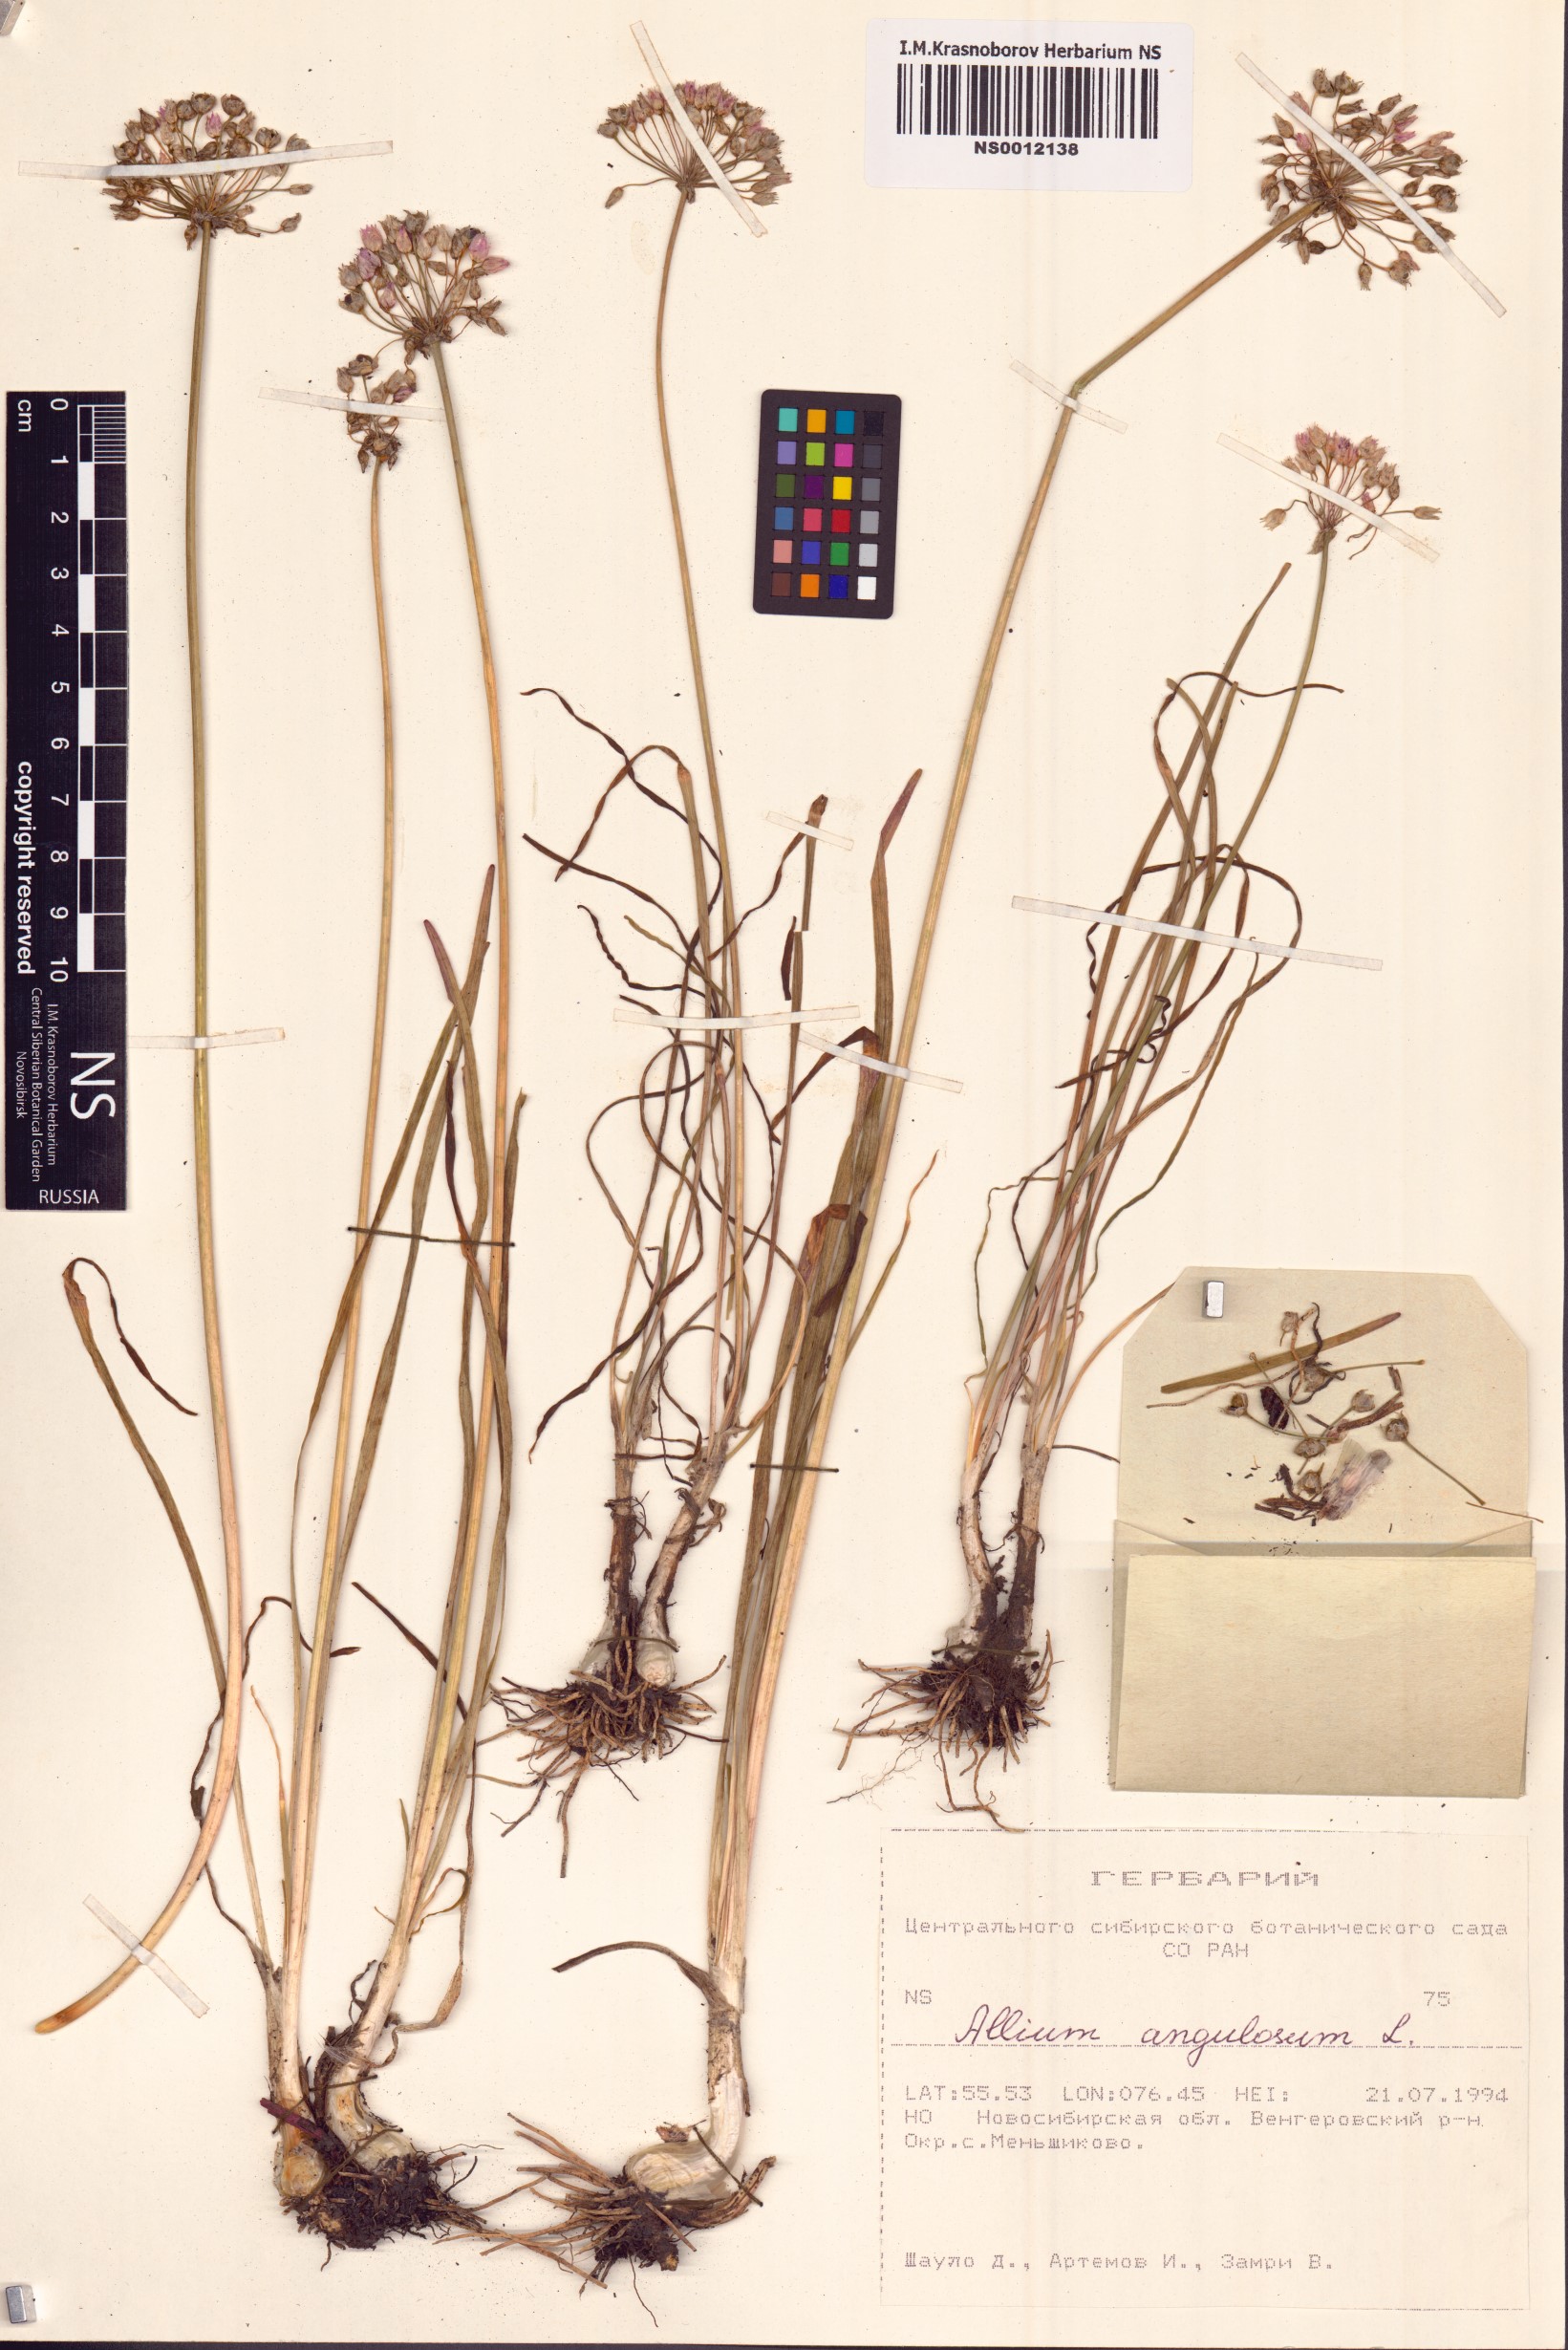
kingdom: Plantae
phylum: Tracheophyta
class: Liliopsida
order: Asparagales
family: Amaryllidaceae
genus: Allium
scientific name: Allium angulosum
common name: Mouse garlic
